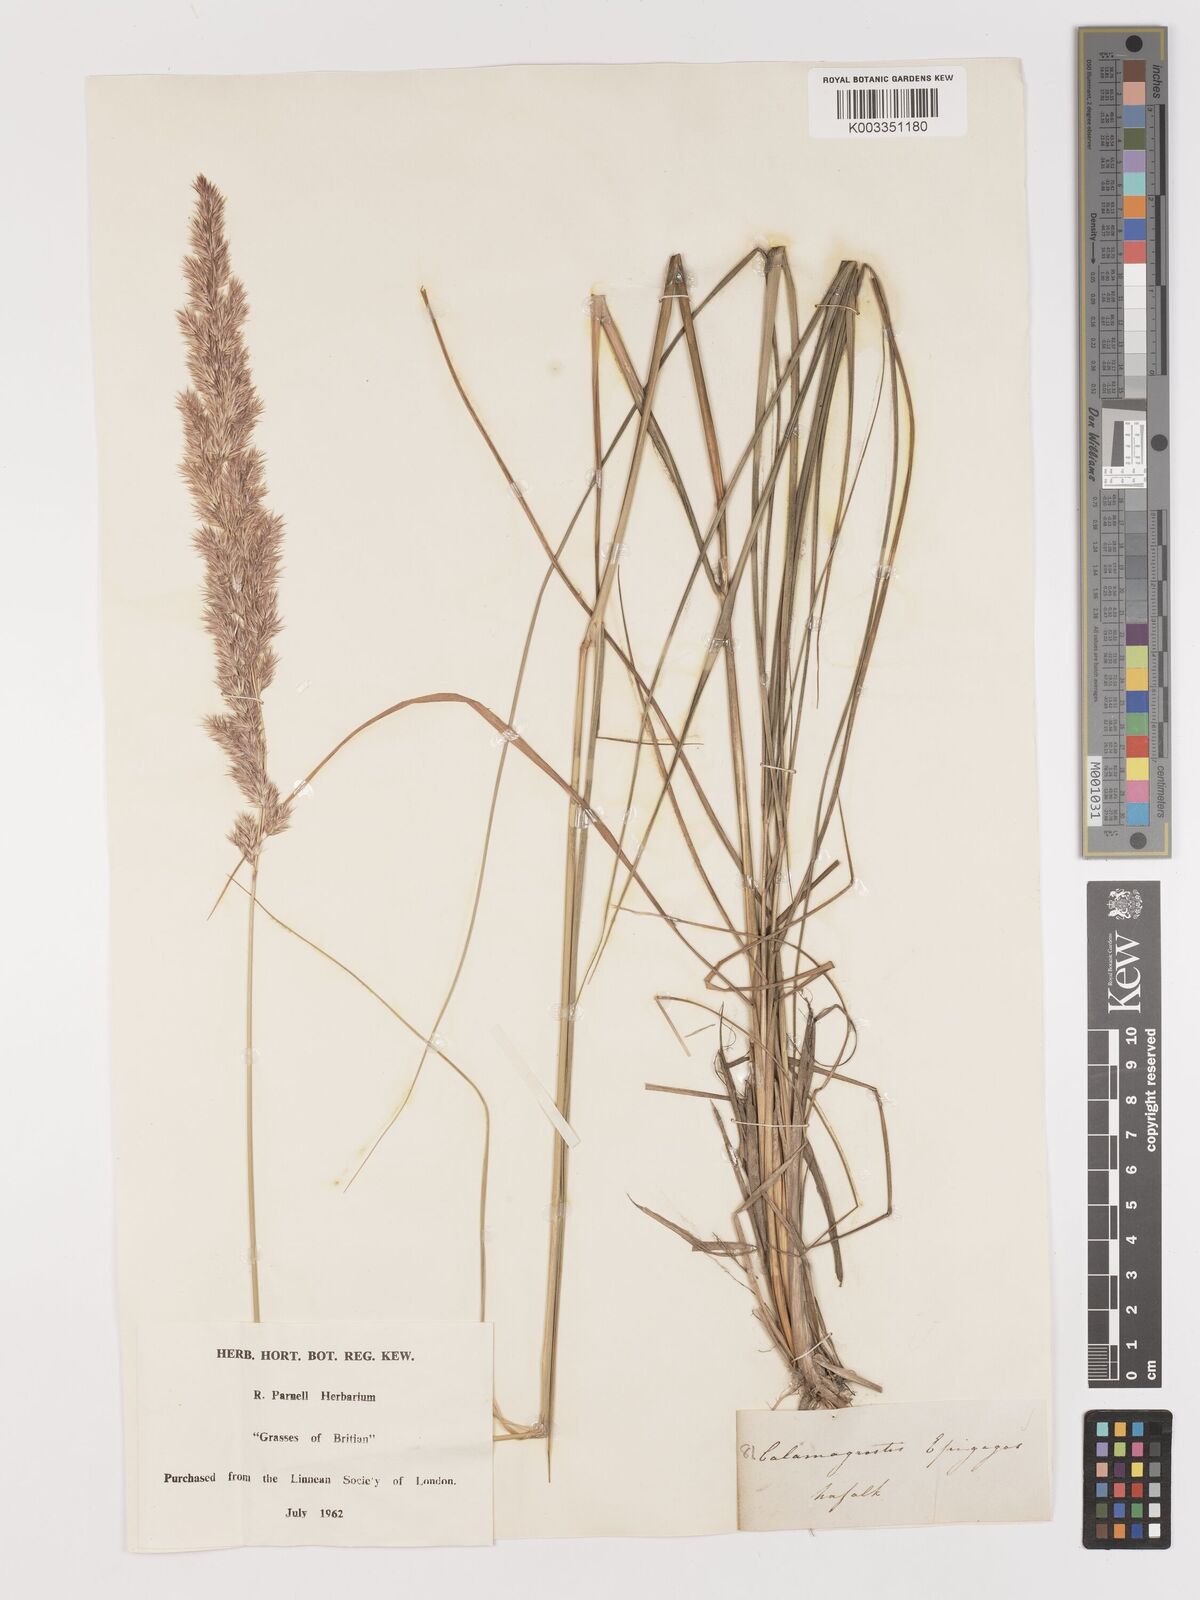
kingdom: Plantae
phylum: Tracheophyta
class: Liliopsida
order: Poales
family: Poaceae
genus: Calamagrostis
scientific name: Calamagrostis
